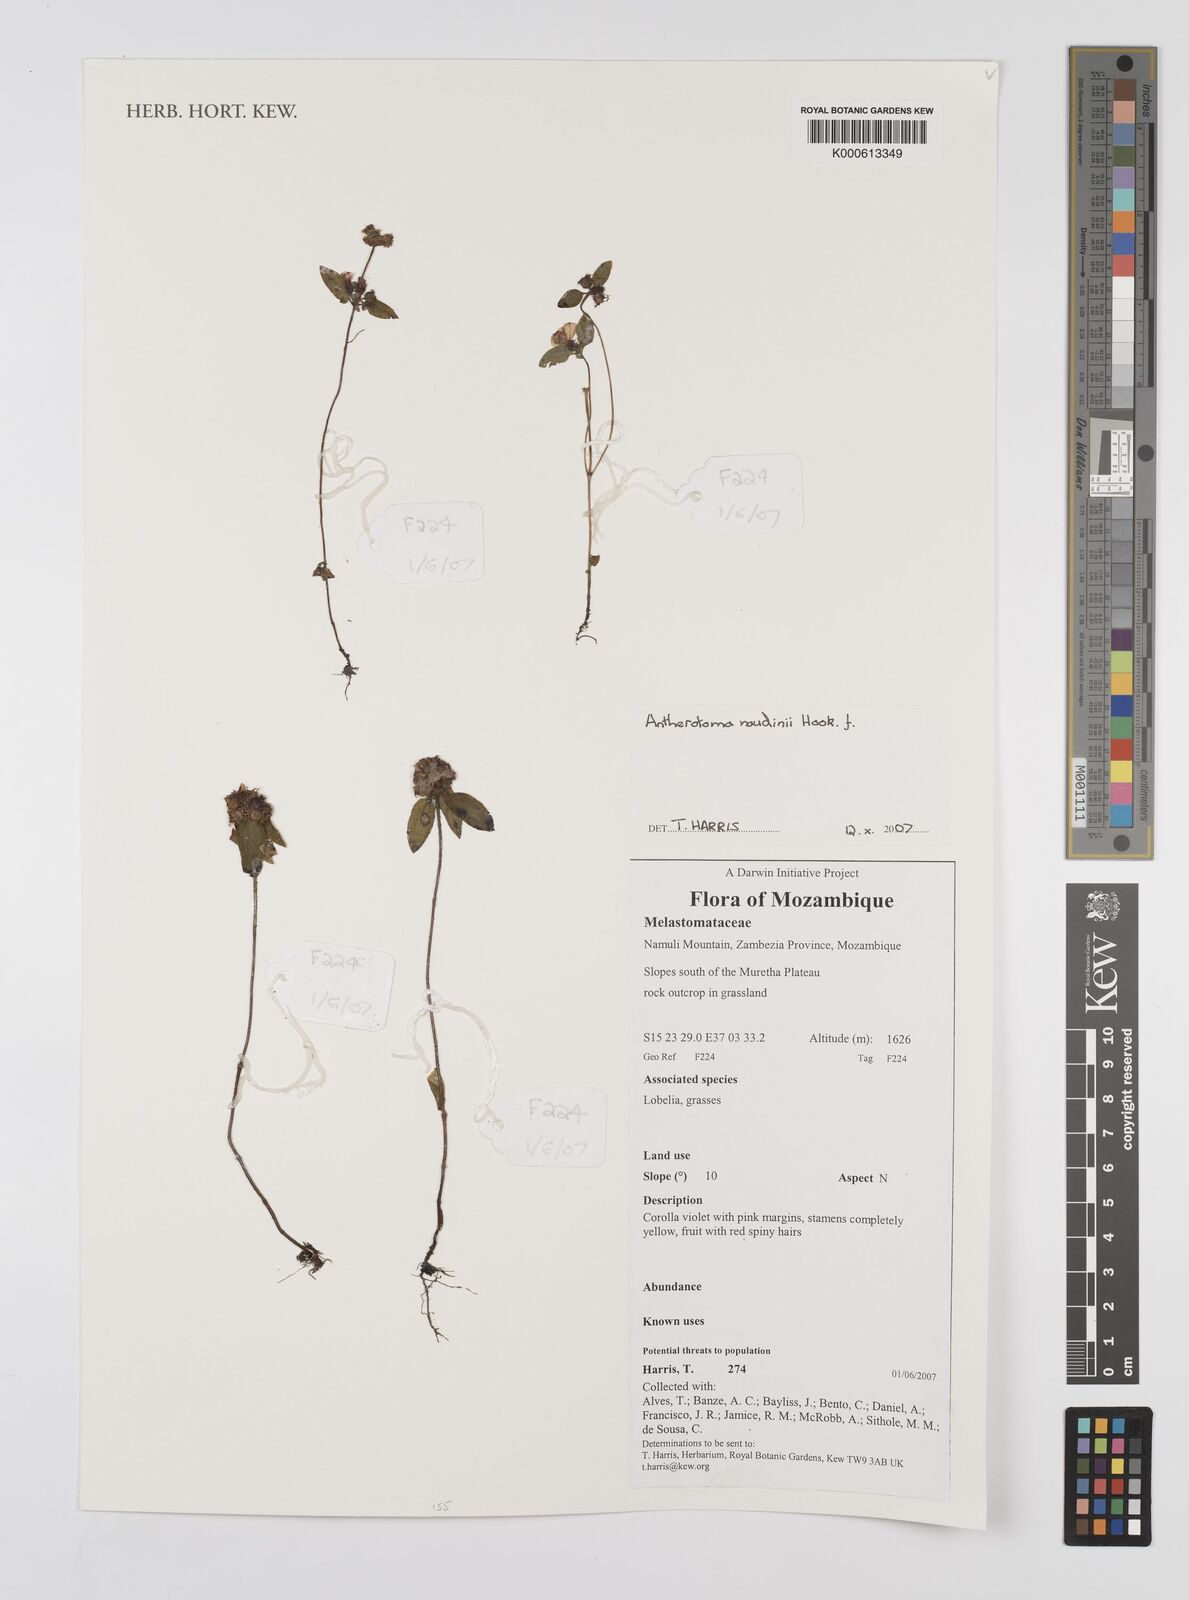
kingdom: Plantae
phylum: Tracheophyta
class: Magnoliopsida
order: Myrtales
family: Melastomataceae
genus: Antherotoma
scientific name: Antherotoma naudinii
